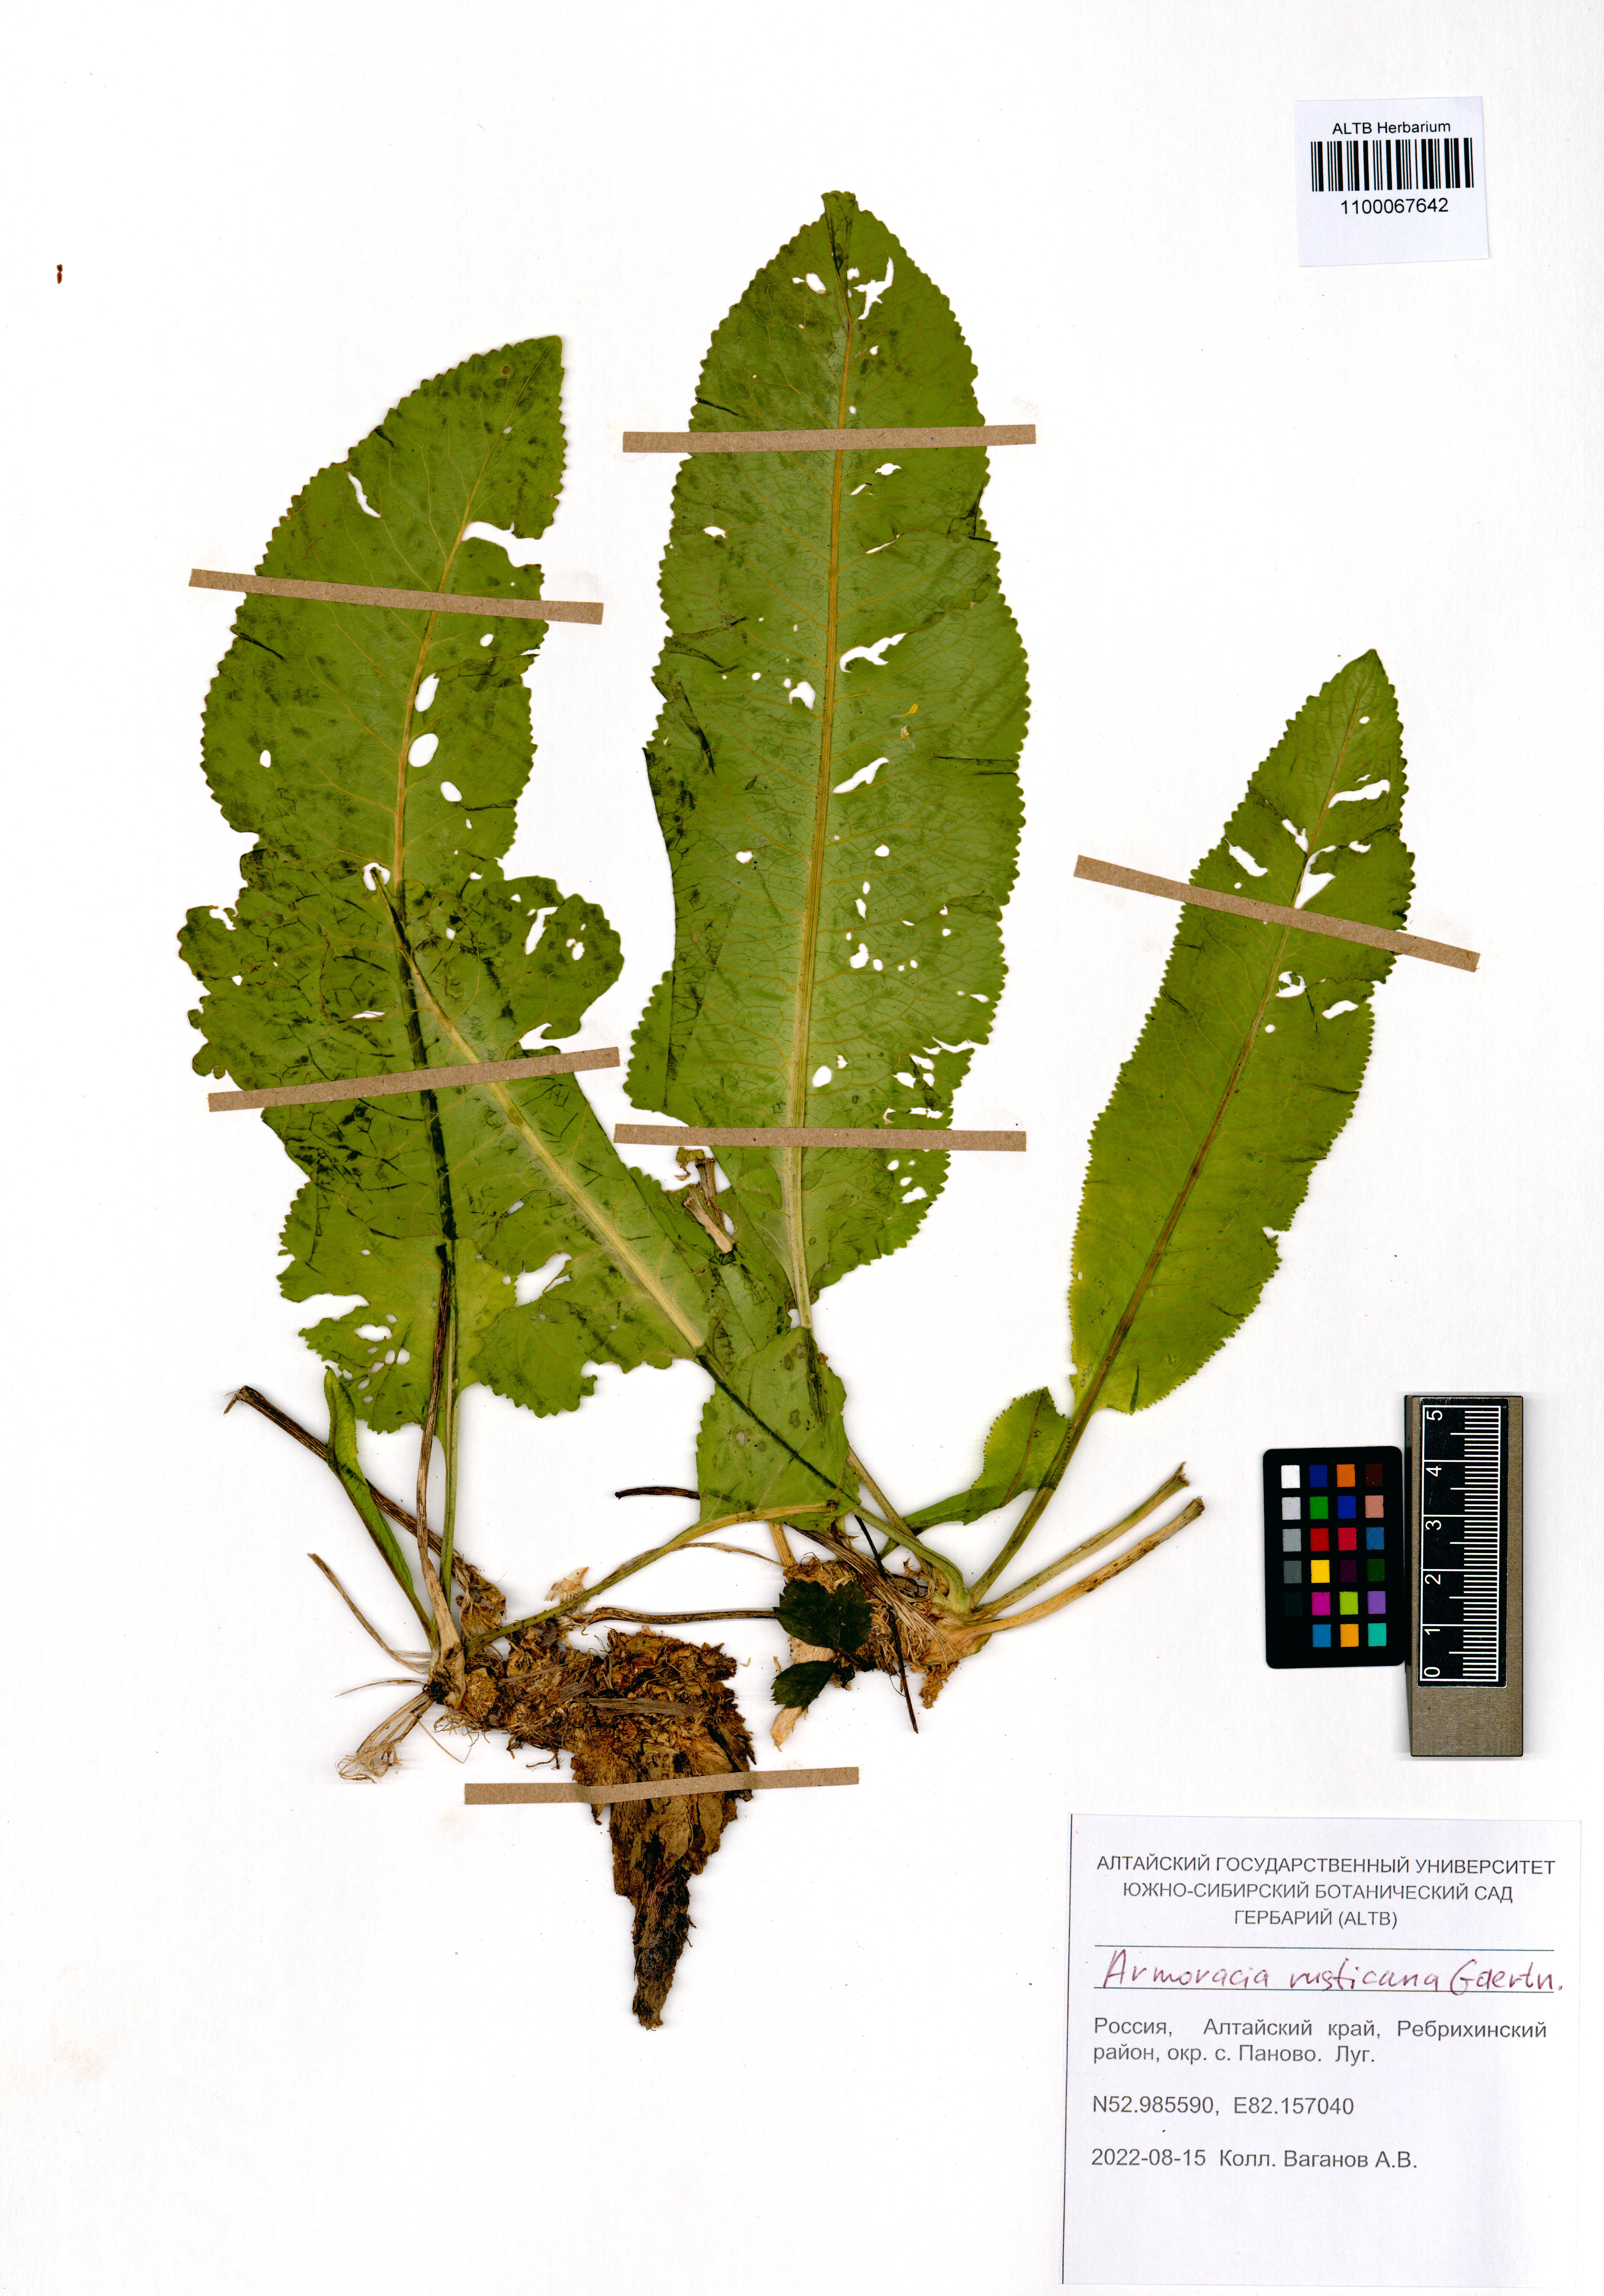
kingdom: Plantae
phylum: Tracheophyta
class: Magnoliopsida
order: Brassicales
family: Brassicaceae
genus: Armoracia
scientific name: Armoracia rusticana
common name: Horseradish
